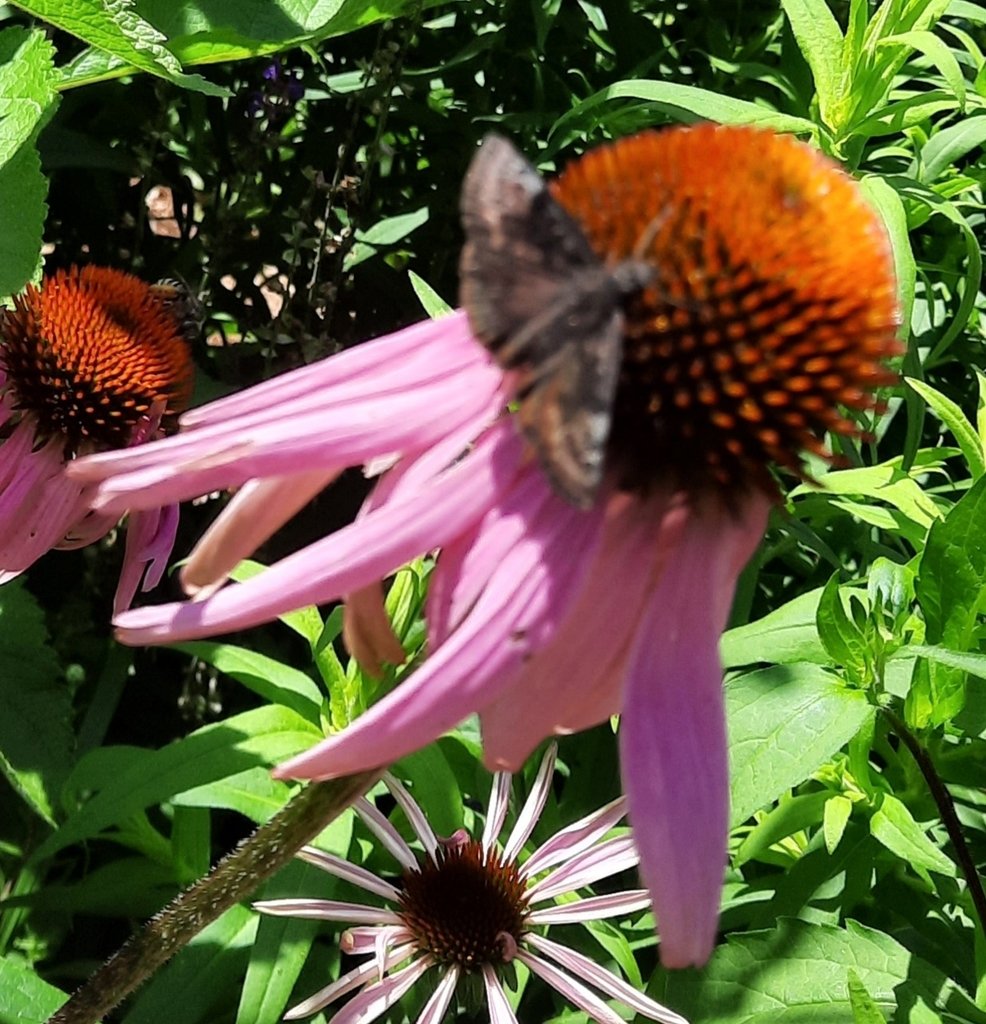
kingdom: Animalia
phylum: Arthropoda
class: Insecta
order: Lepidoptera
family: Hesperiidae
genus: Gesta
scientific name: Gesta
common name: Wild Indigo Duskywing
